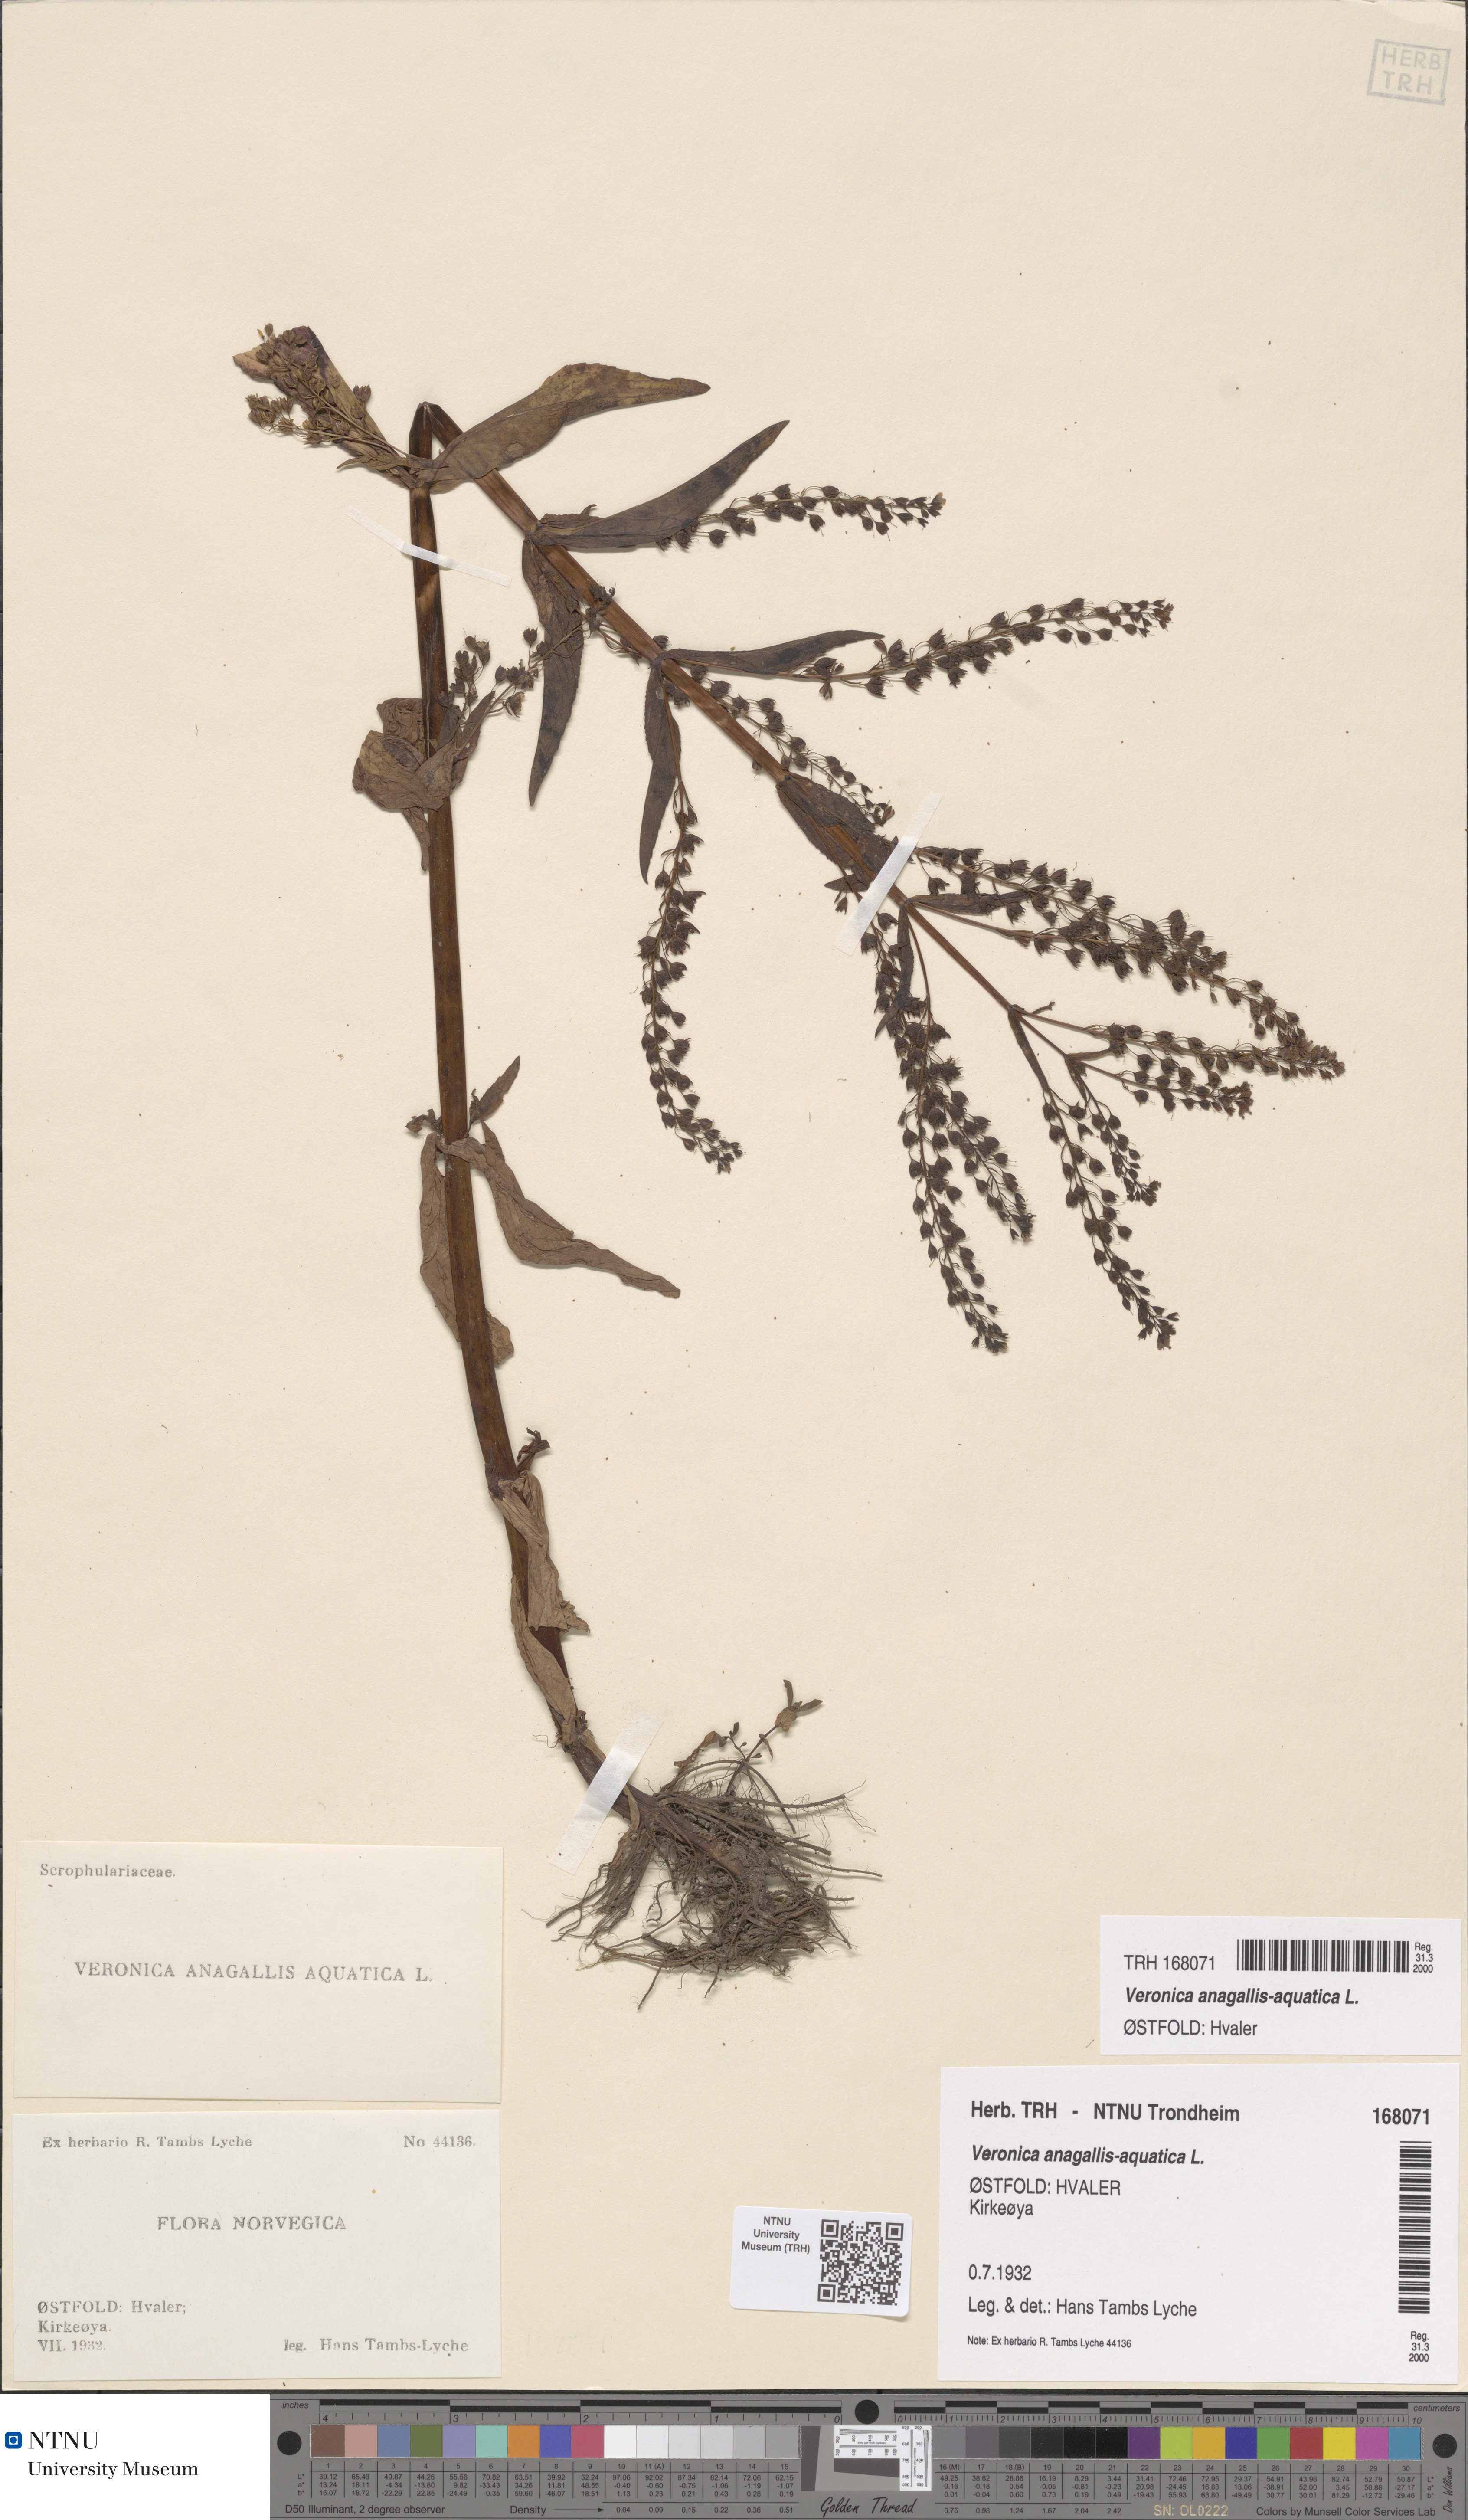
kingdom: Plantae
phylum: Tracheophyta
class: Magnoliopsida
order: Lamiales
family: Plantaginaceae
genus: Veronica
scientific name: Veronica anagallis-aquatica
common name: Water speedwell
